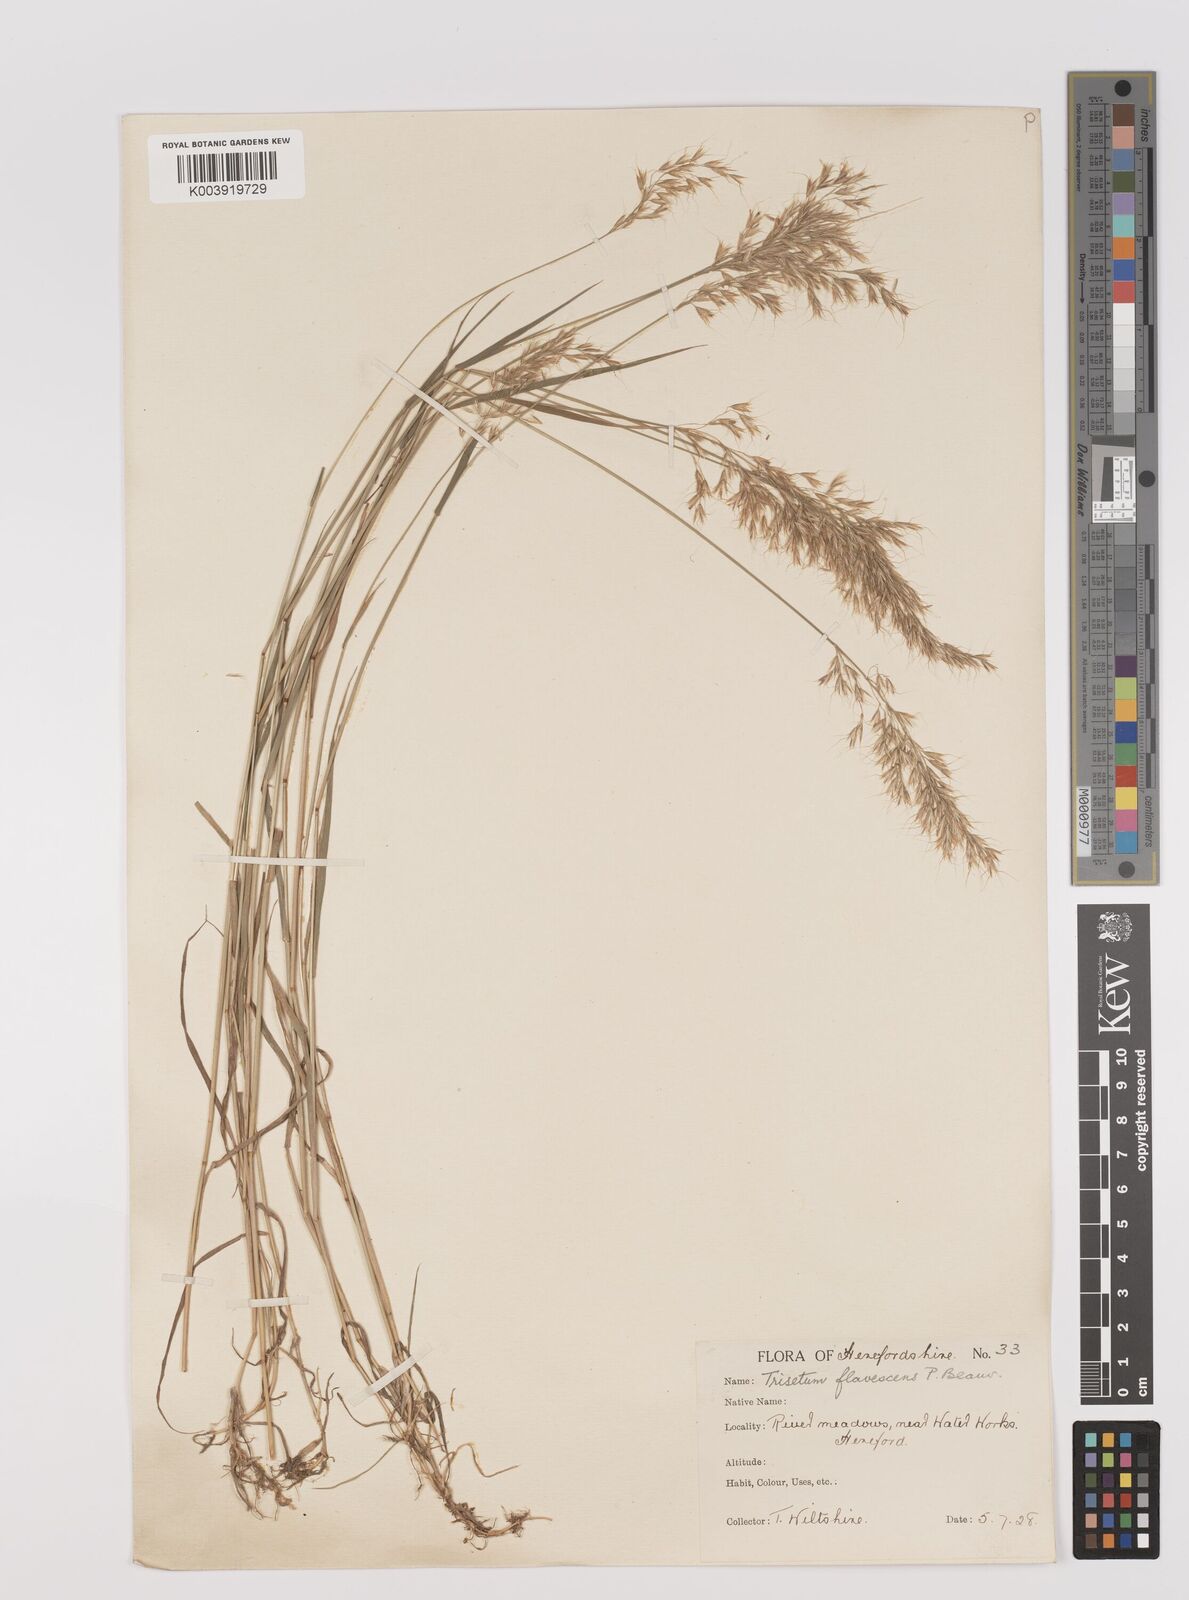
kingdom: Plantae
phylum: Tracheophyta
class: Liliopsida
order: Poales
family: Poaceae
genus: Trisetum
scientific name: Trisetum flavescens
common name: Yellow oat-grass
